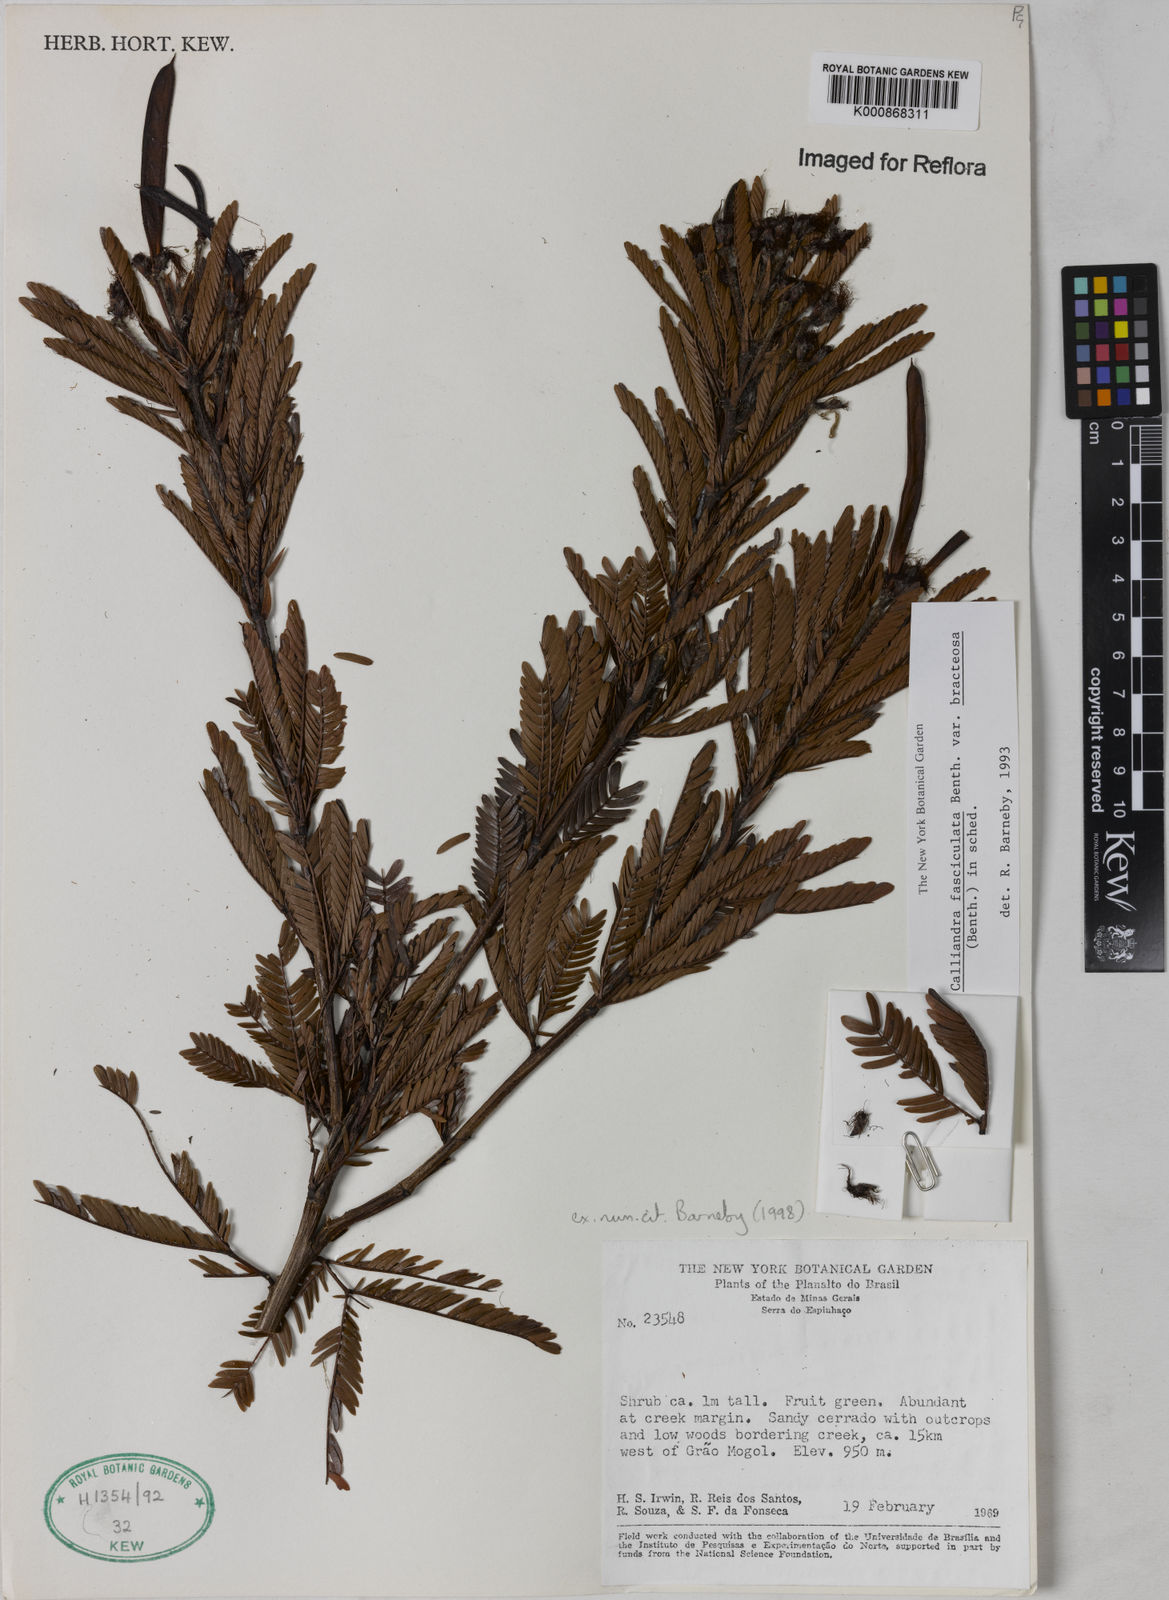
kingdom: Plantae
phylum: Tracheophyta
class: Magnoliopsida
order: Fabales
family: Fabaceae
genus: Calliandra
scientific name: Calliandra fasciculata
